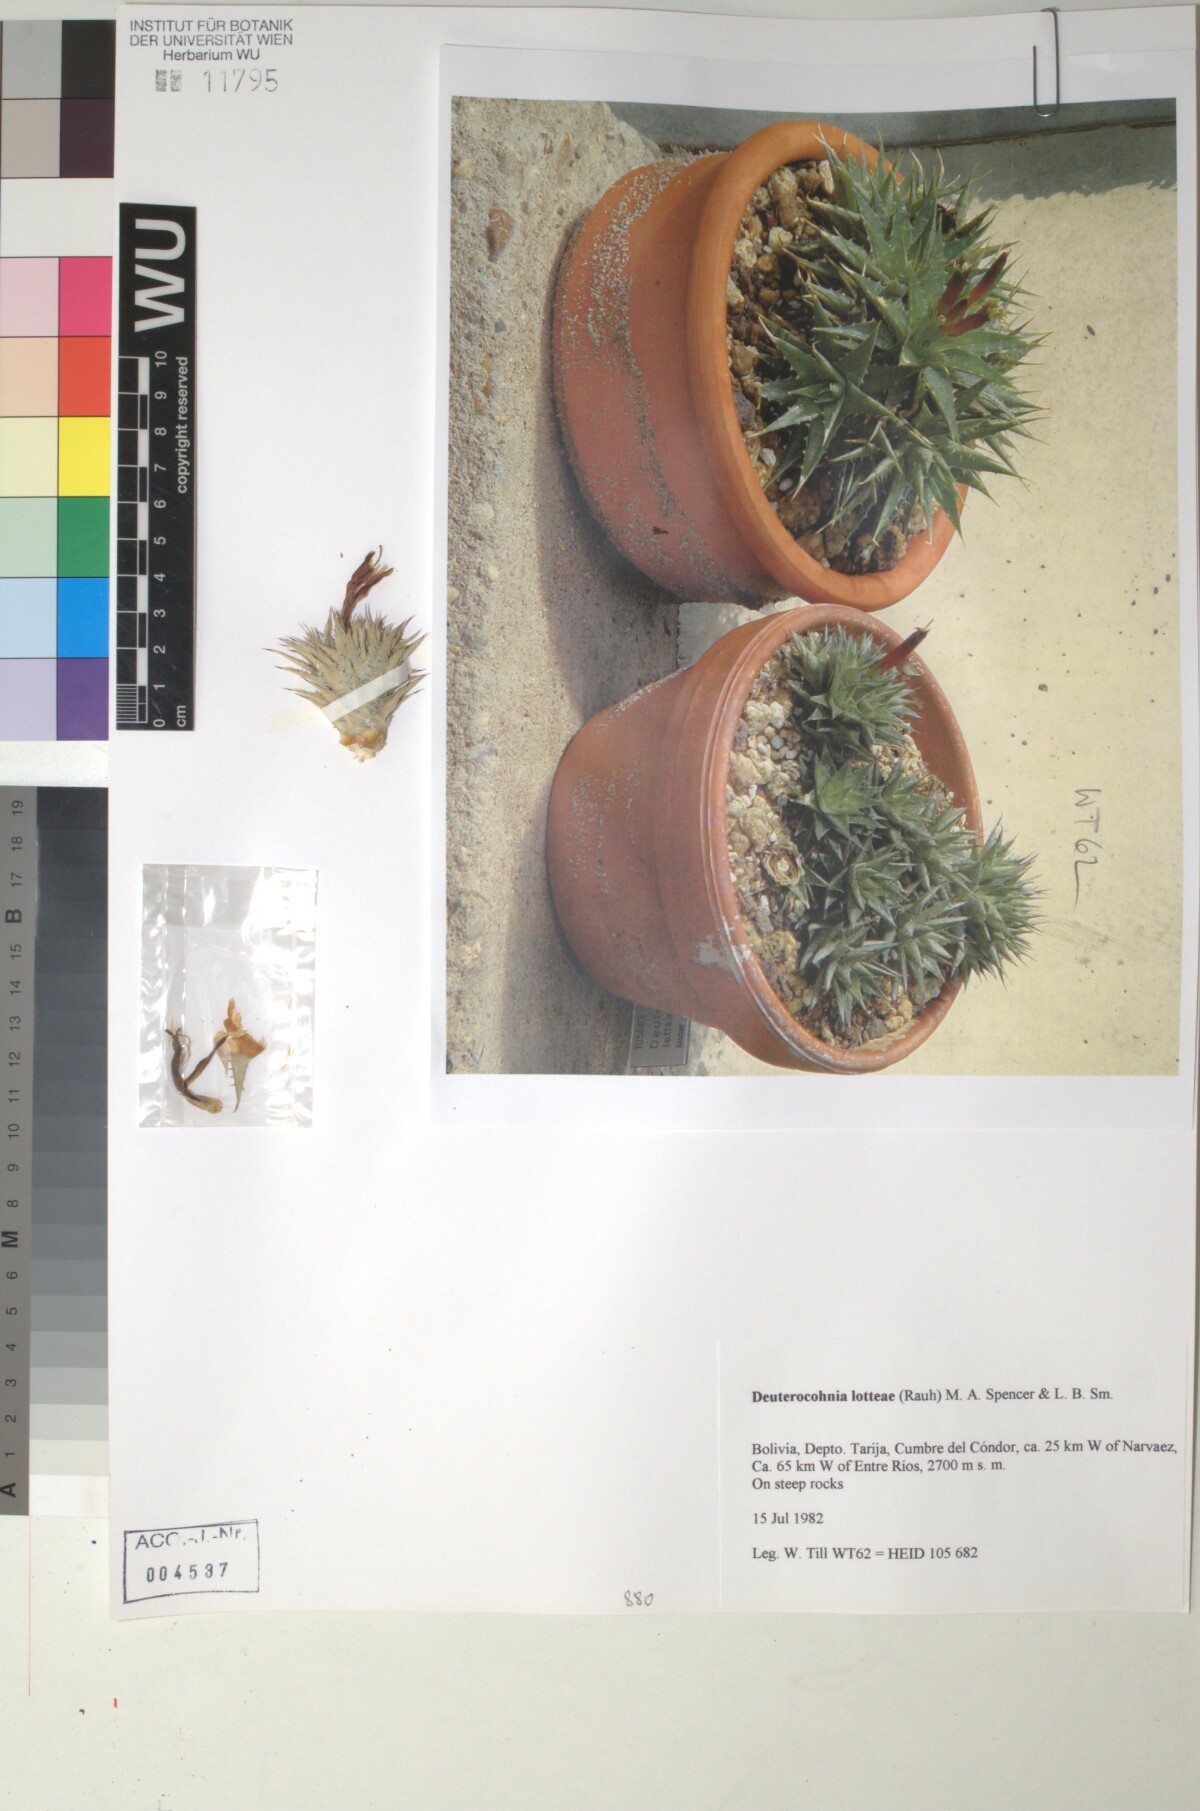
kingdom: Plantae
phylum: Tracheophyta
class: Liliopsida
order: Poales
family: Bromeliaceae
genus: Deuterocohnia
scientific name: Deuterocohnia lotteae
